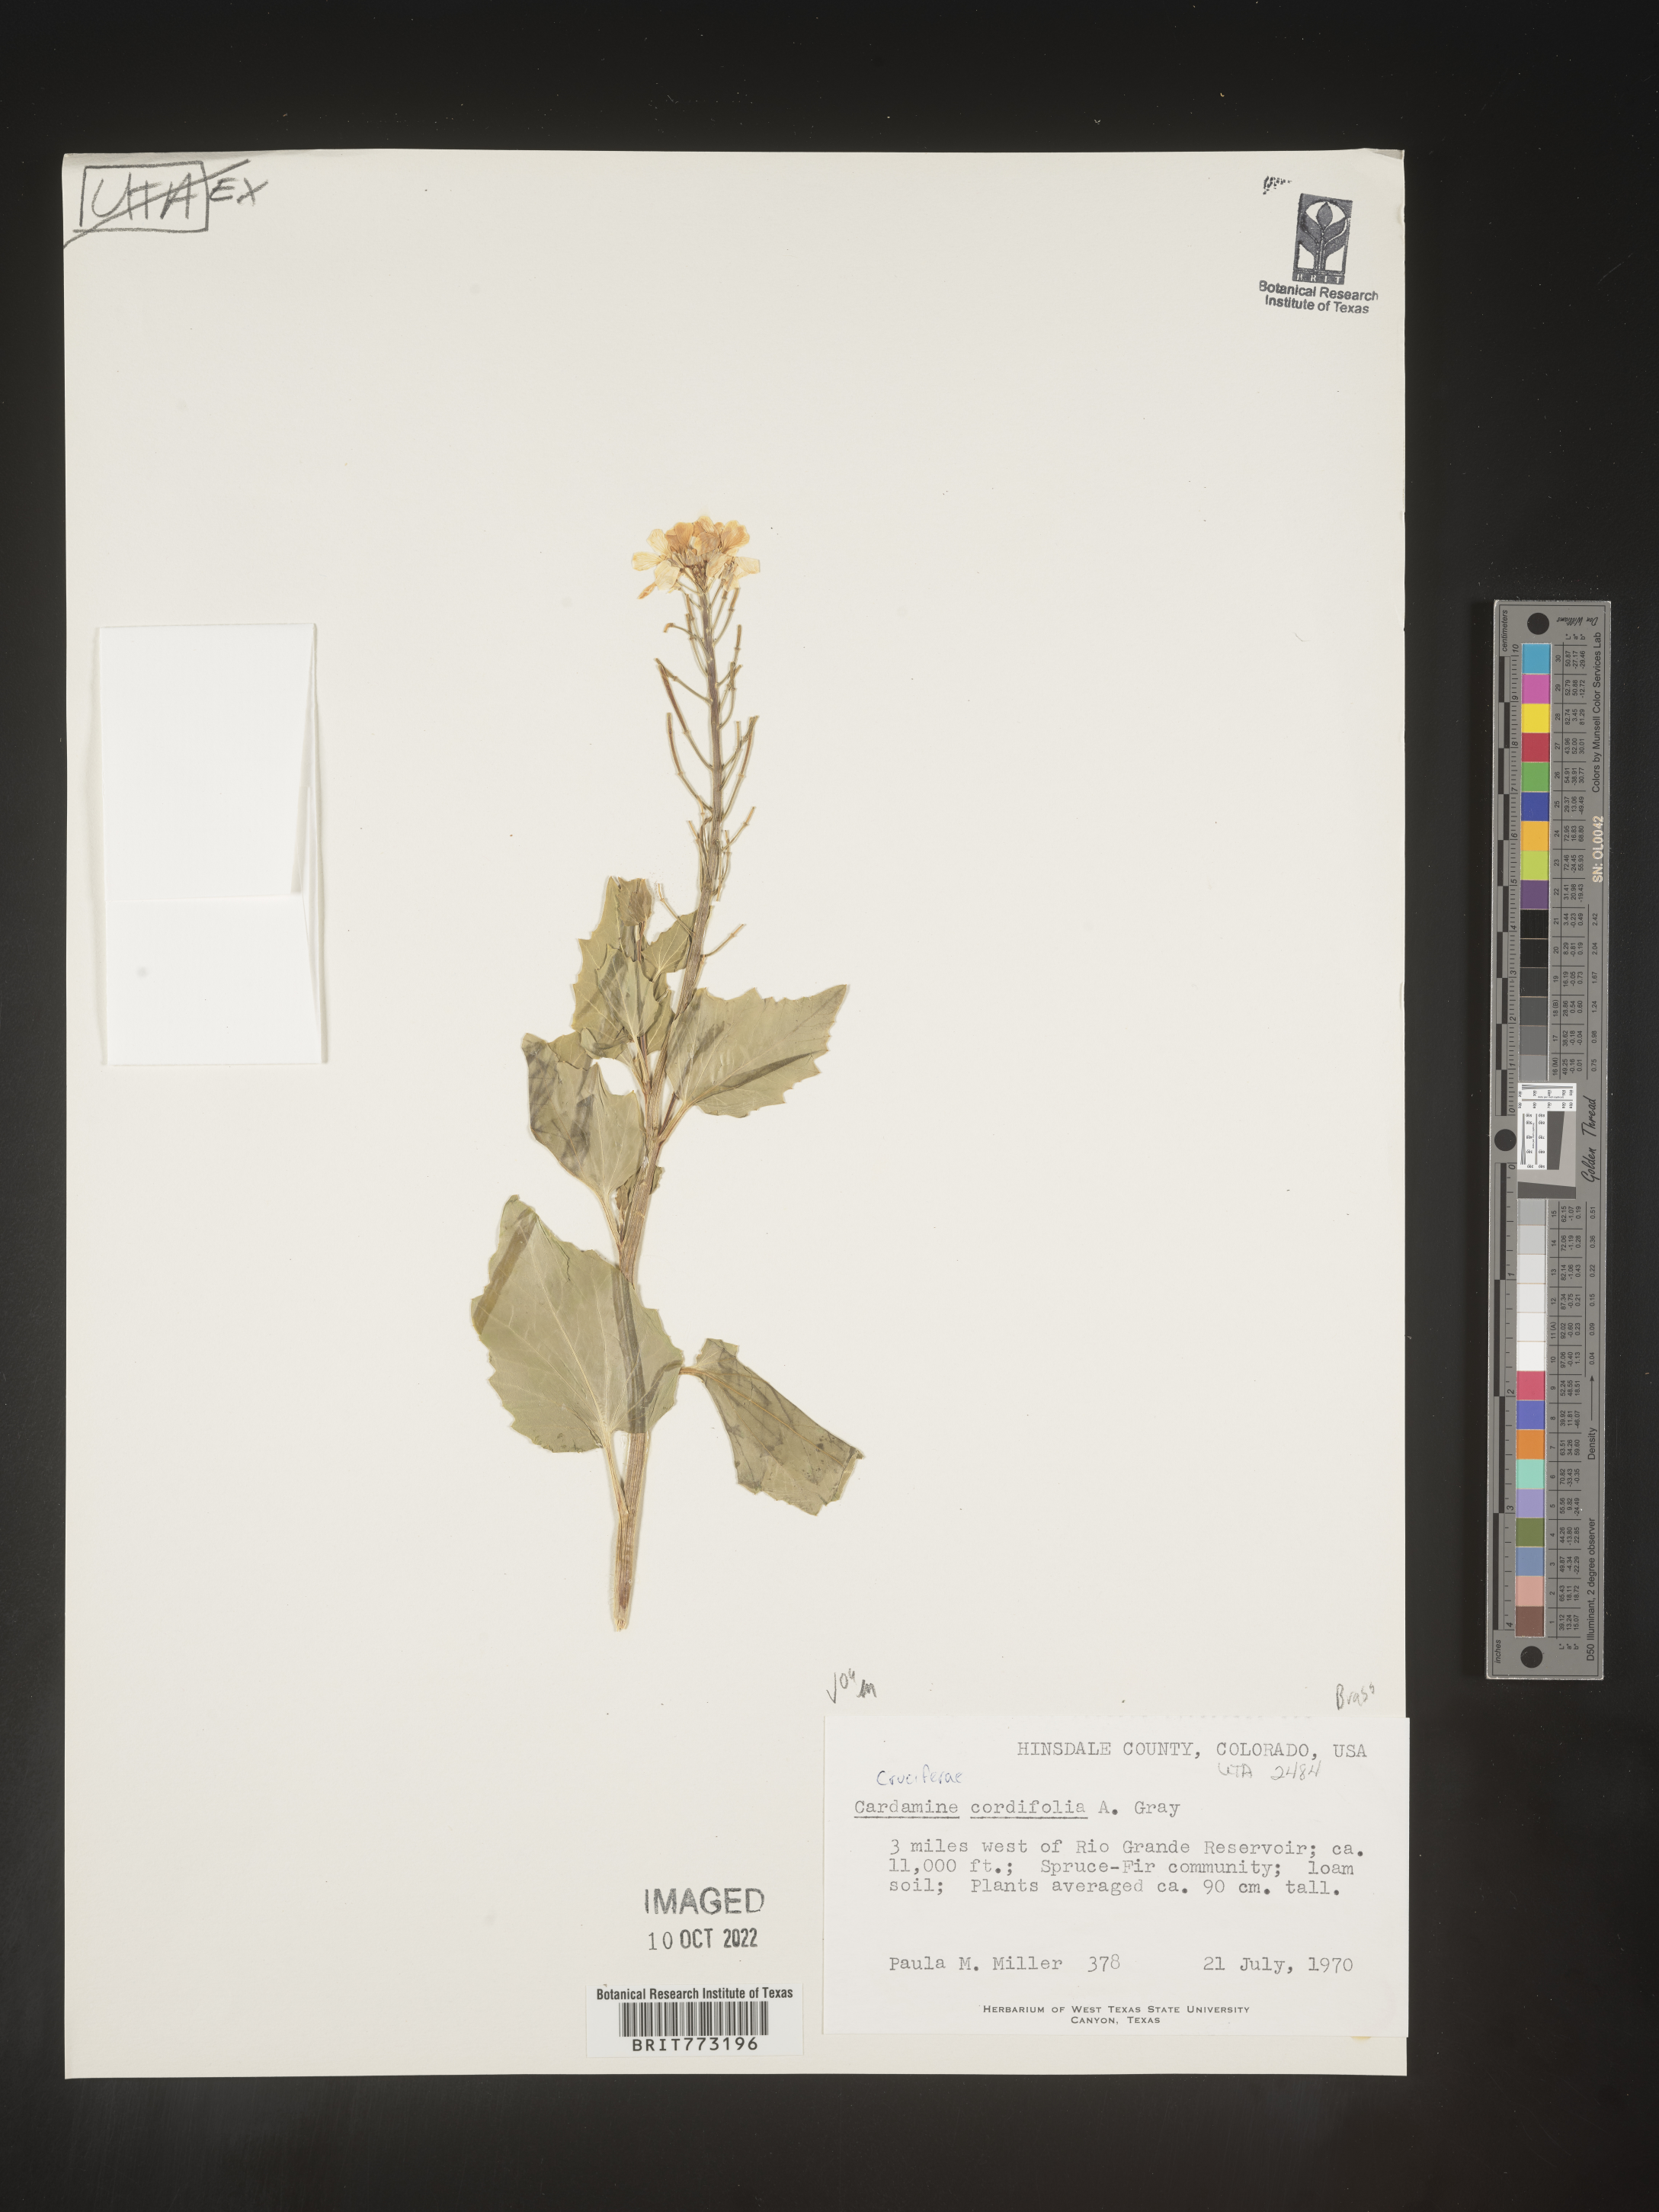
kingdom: Plantae
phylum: Tracheophyta
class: Magnoliopsida
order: Brassicales
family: Brassicaceae
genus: Cardamine
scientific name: Cardamine
